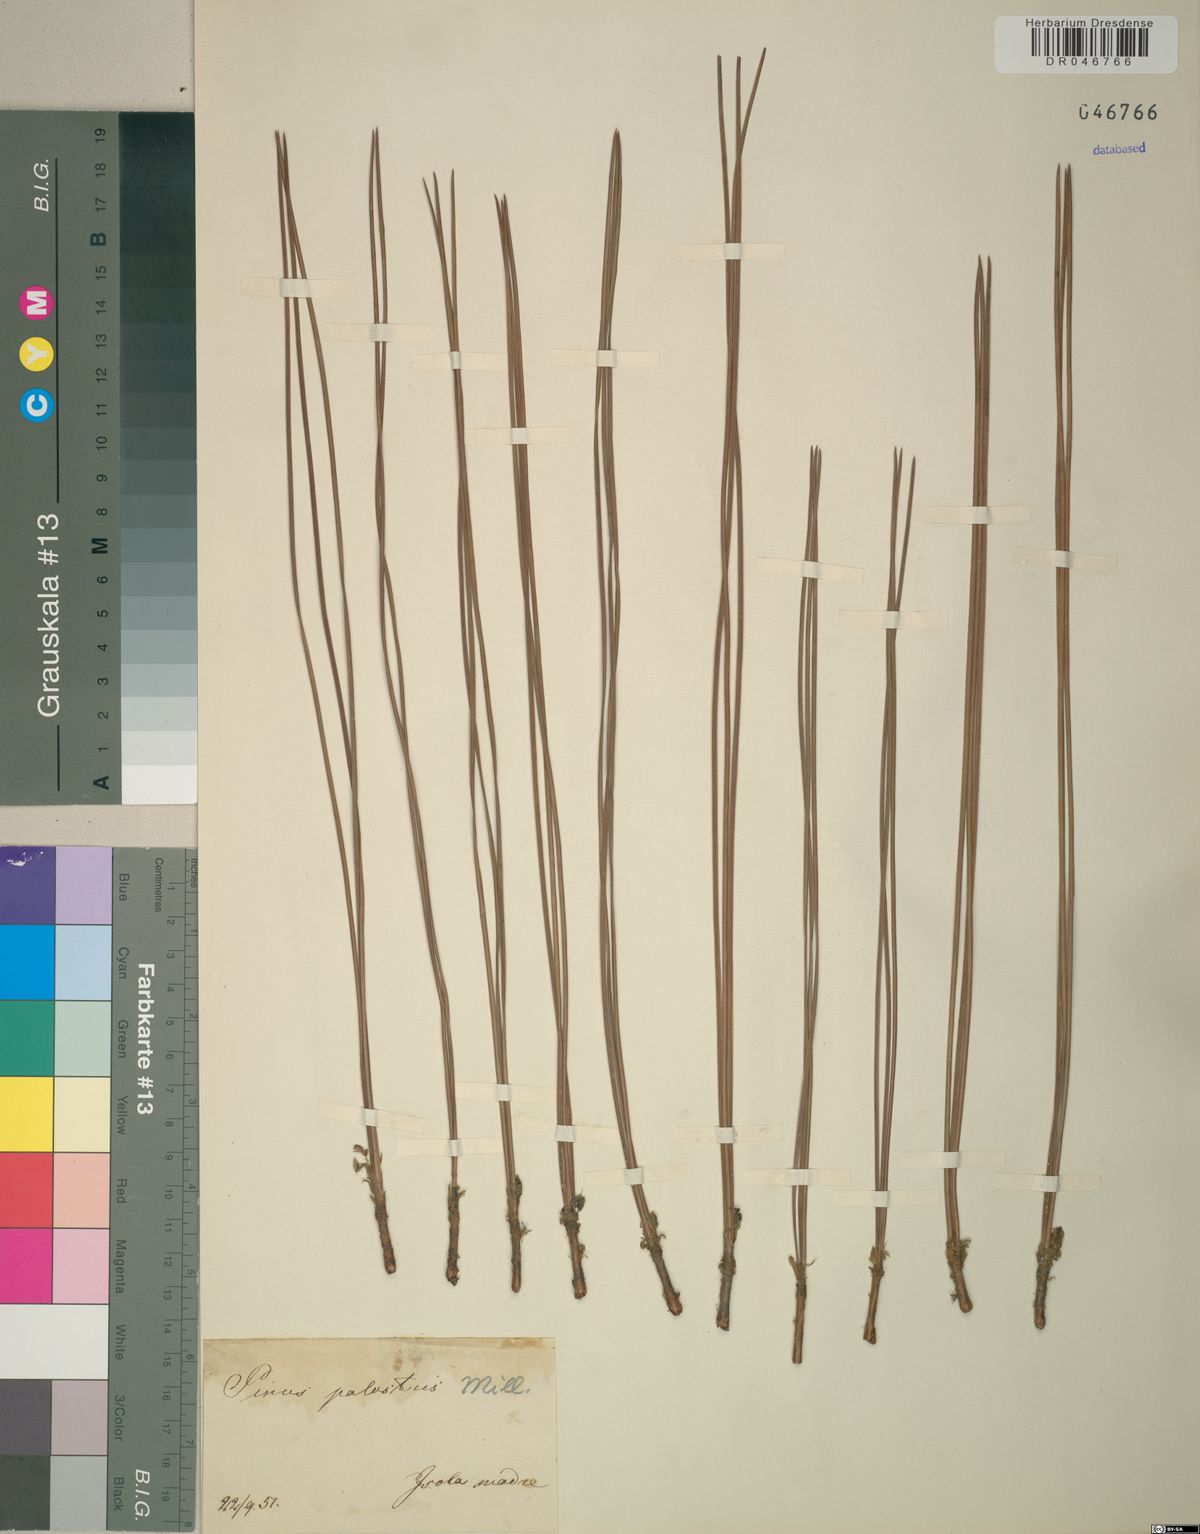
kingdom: Plantae
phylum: Tracheophyta
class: Pinopsida
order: Pinales
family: Pinaceae
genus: Pinus
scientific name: Pinus palustris
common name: Longleaf pine
